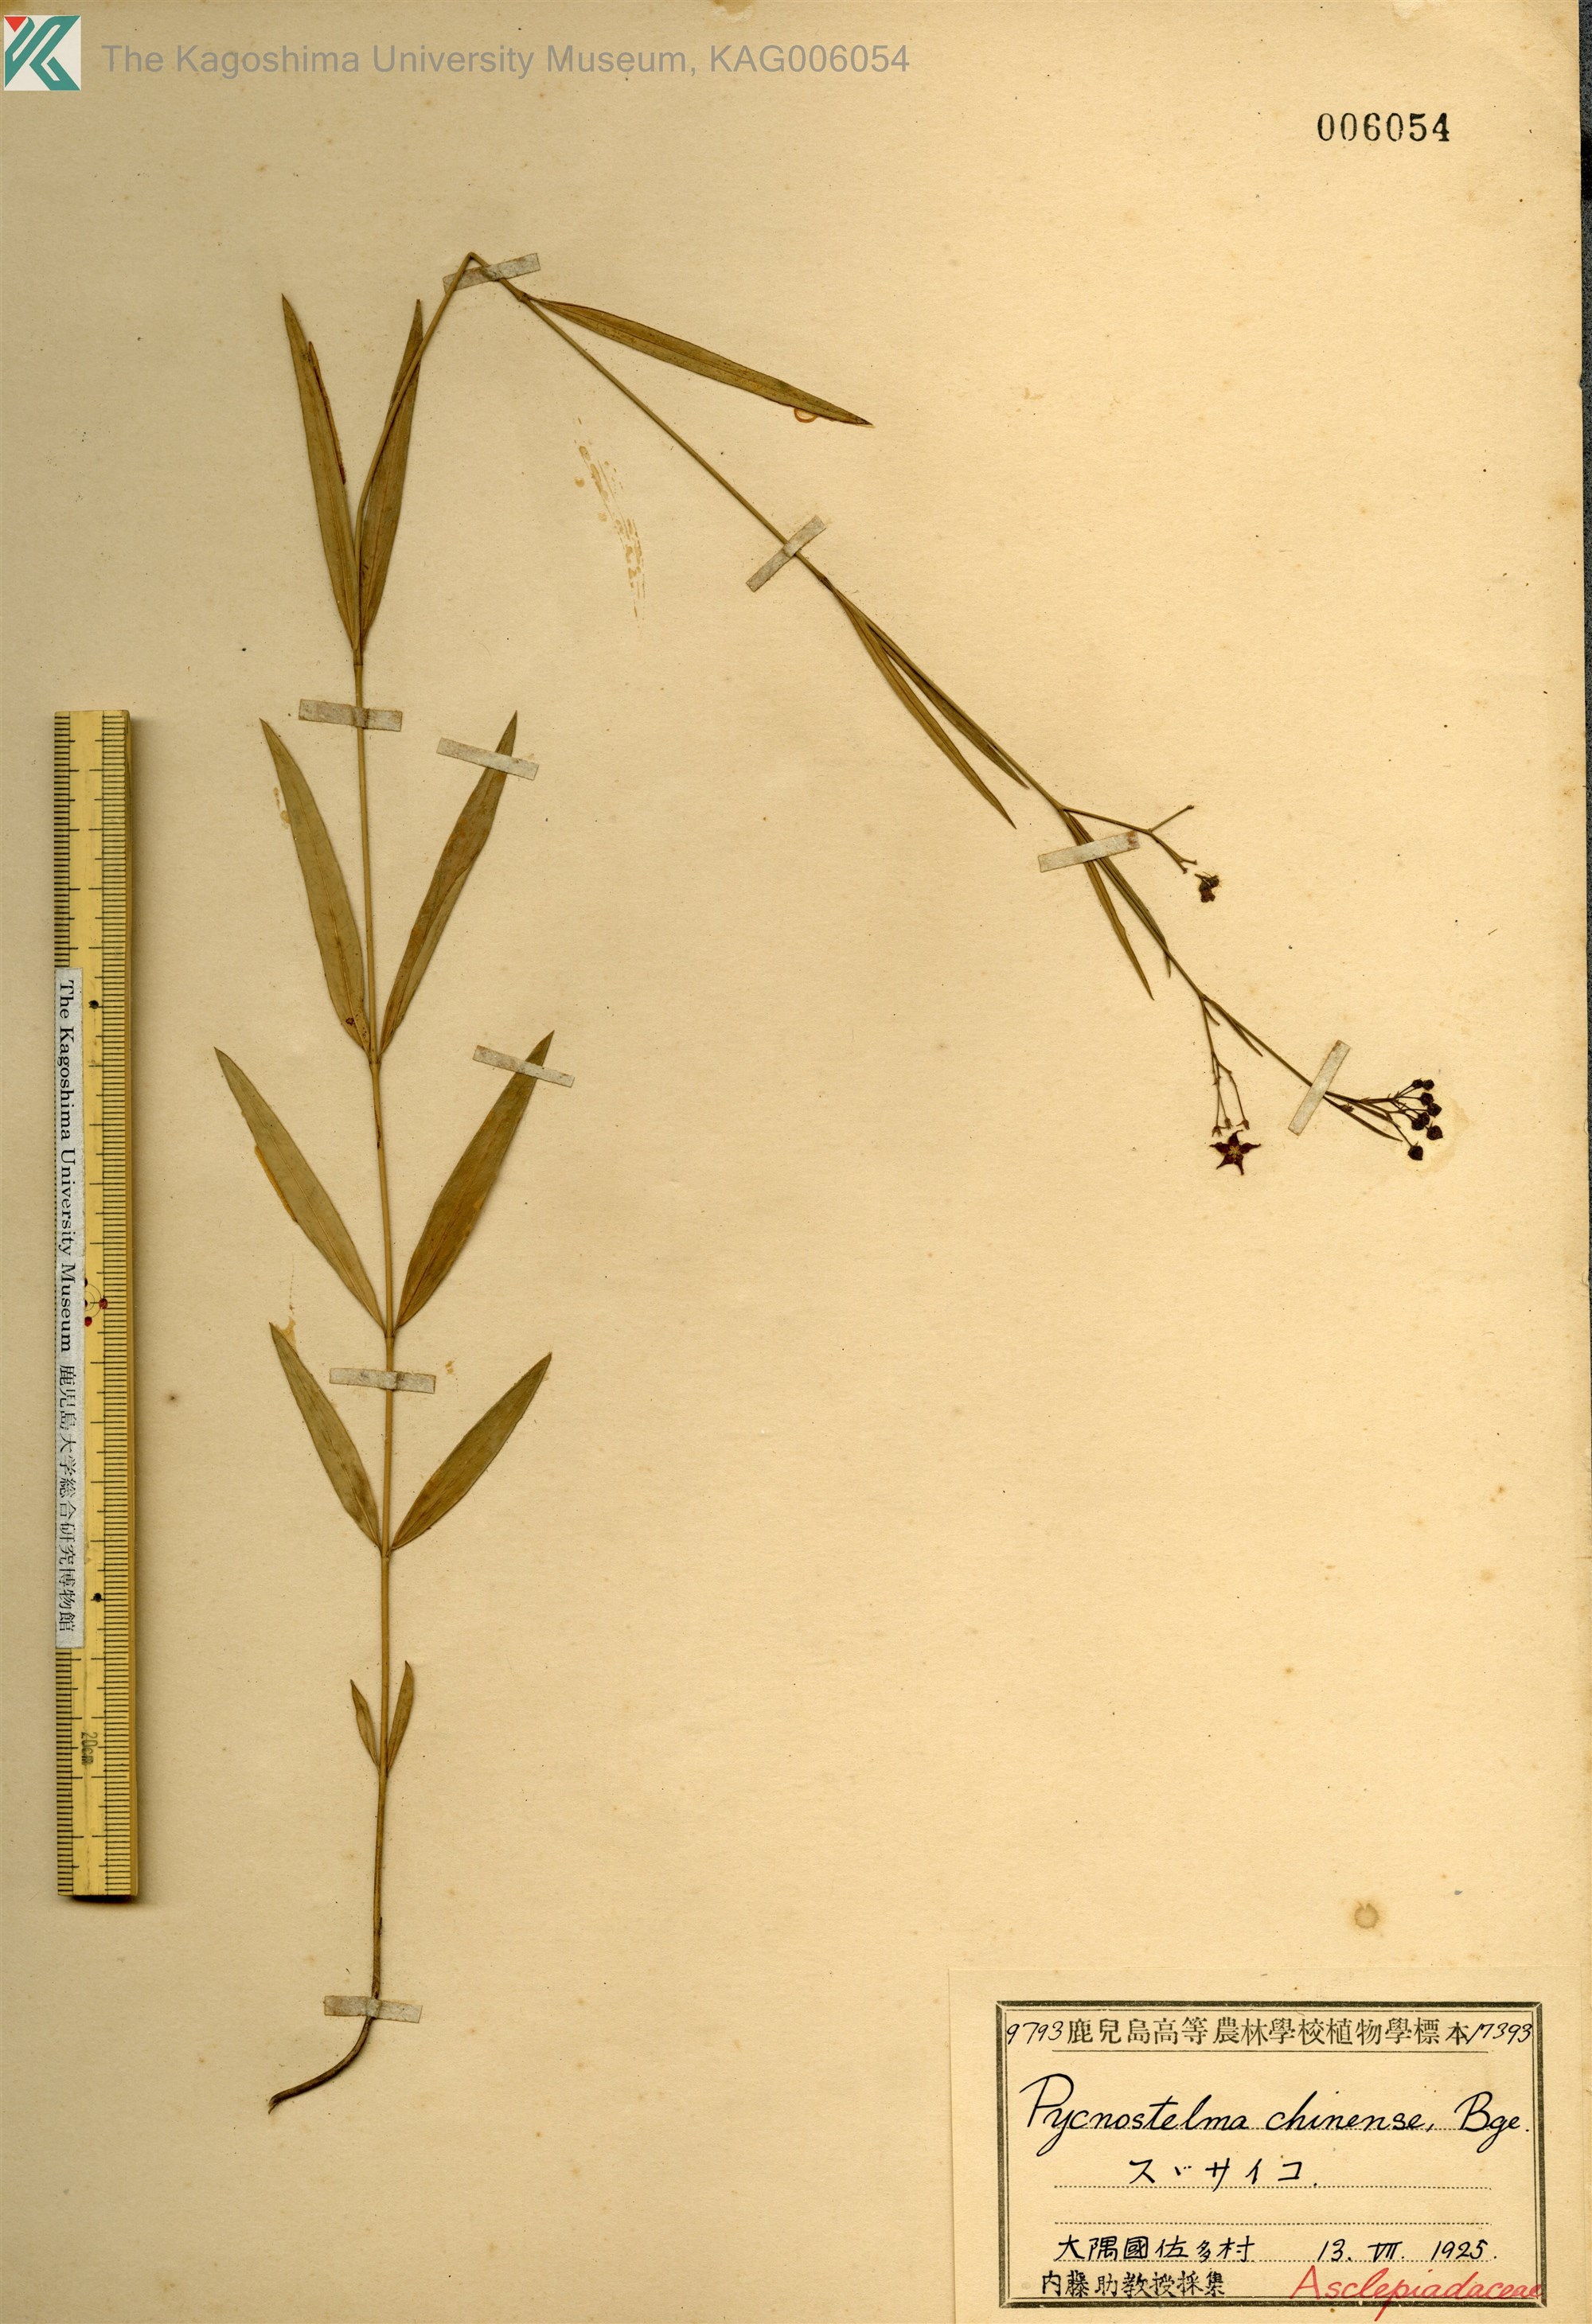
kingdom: Plantae
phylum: Tracheophyta
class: Magnoliopsida
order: Gentianales
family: Apocynaceae
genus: Vincetoxicum
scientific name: Vincetoxicum mukdenense
